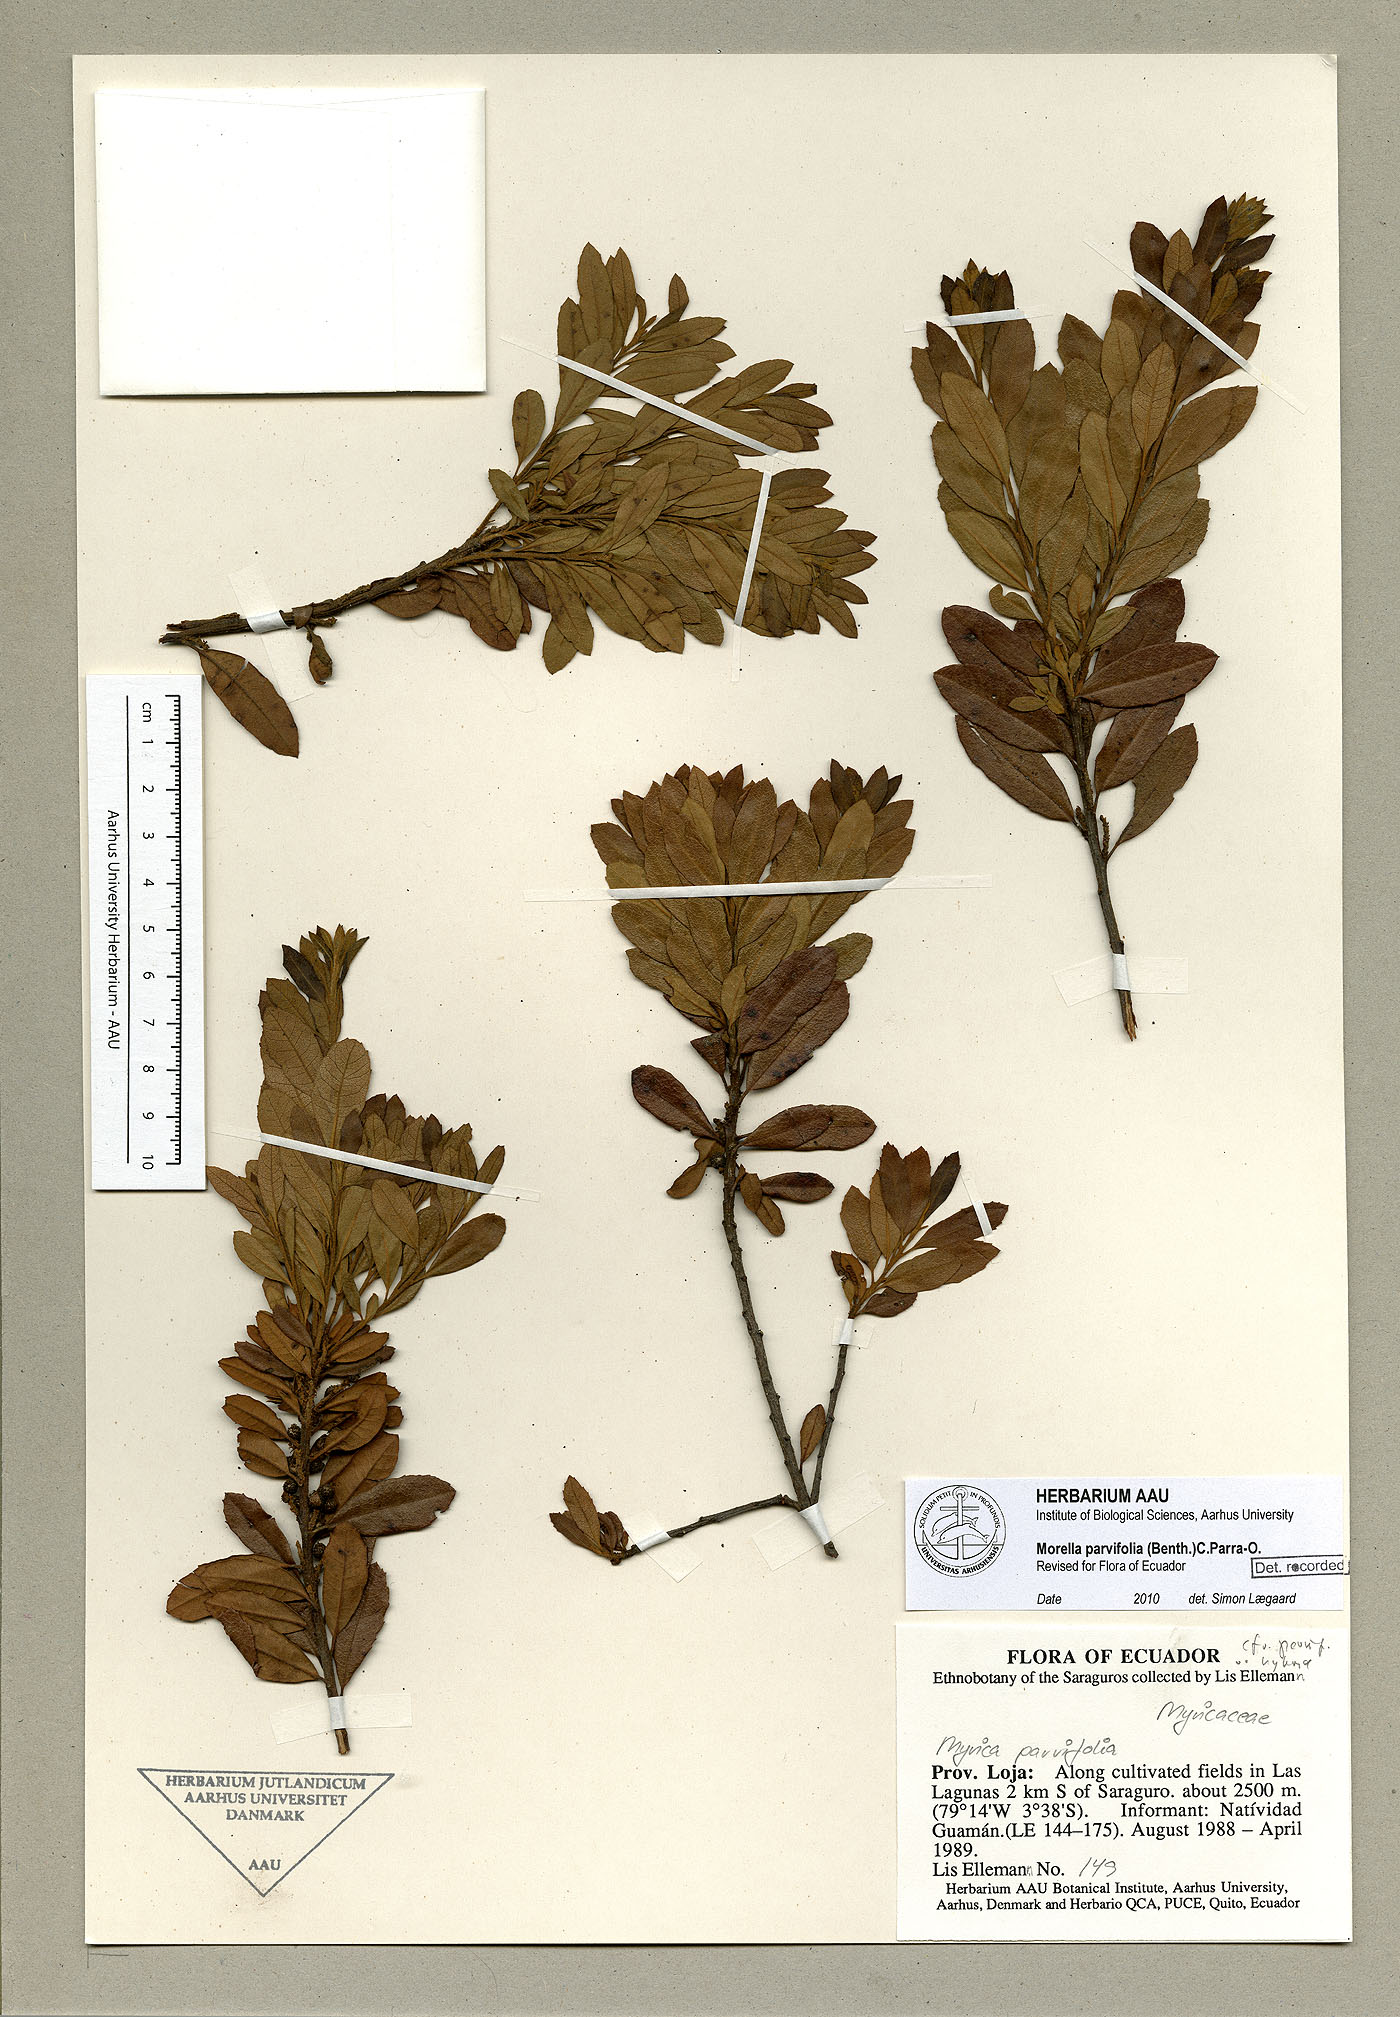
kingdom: Plantae
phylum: Tracheophyta
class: Magnoliopsida
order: Fagales
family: Myricaceae
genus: Morella
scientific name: Morella parvifolia
